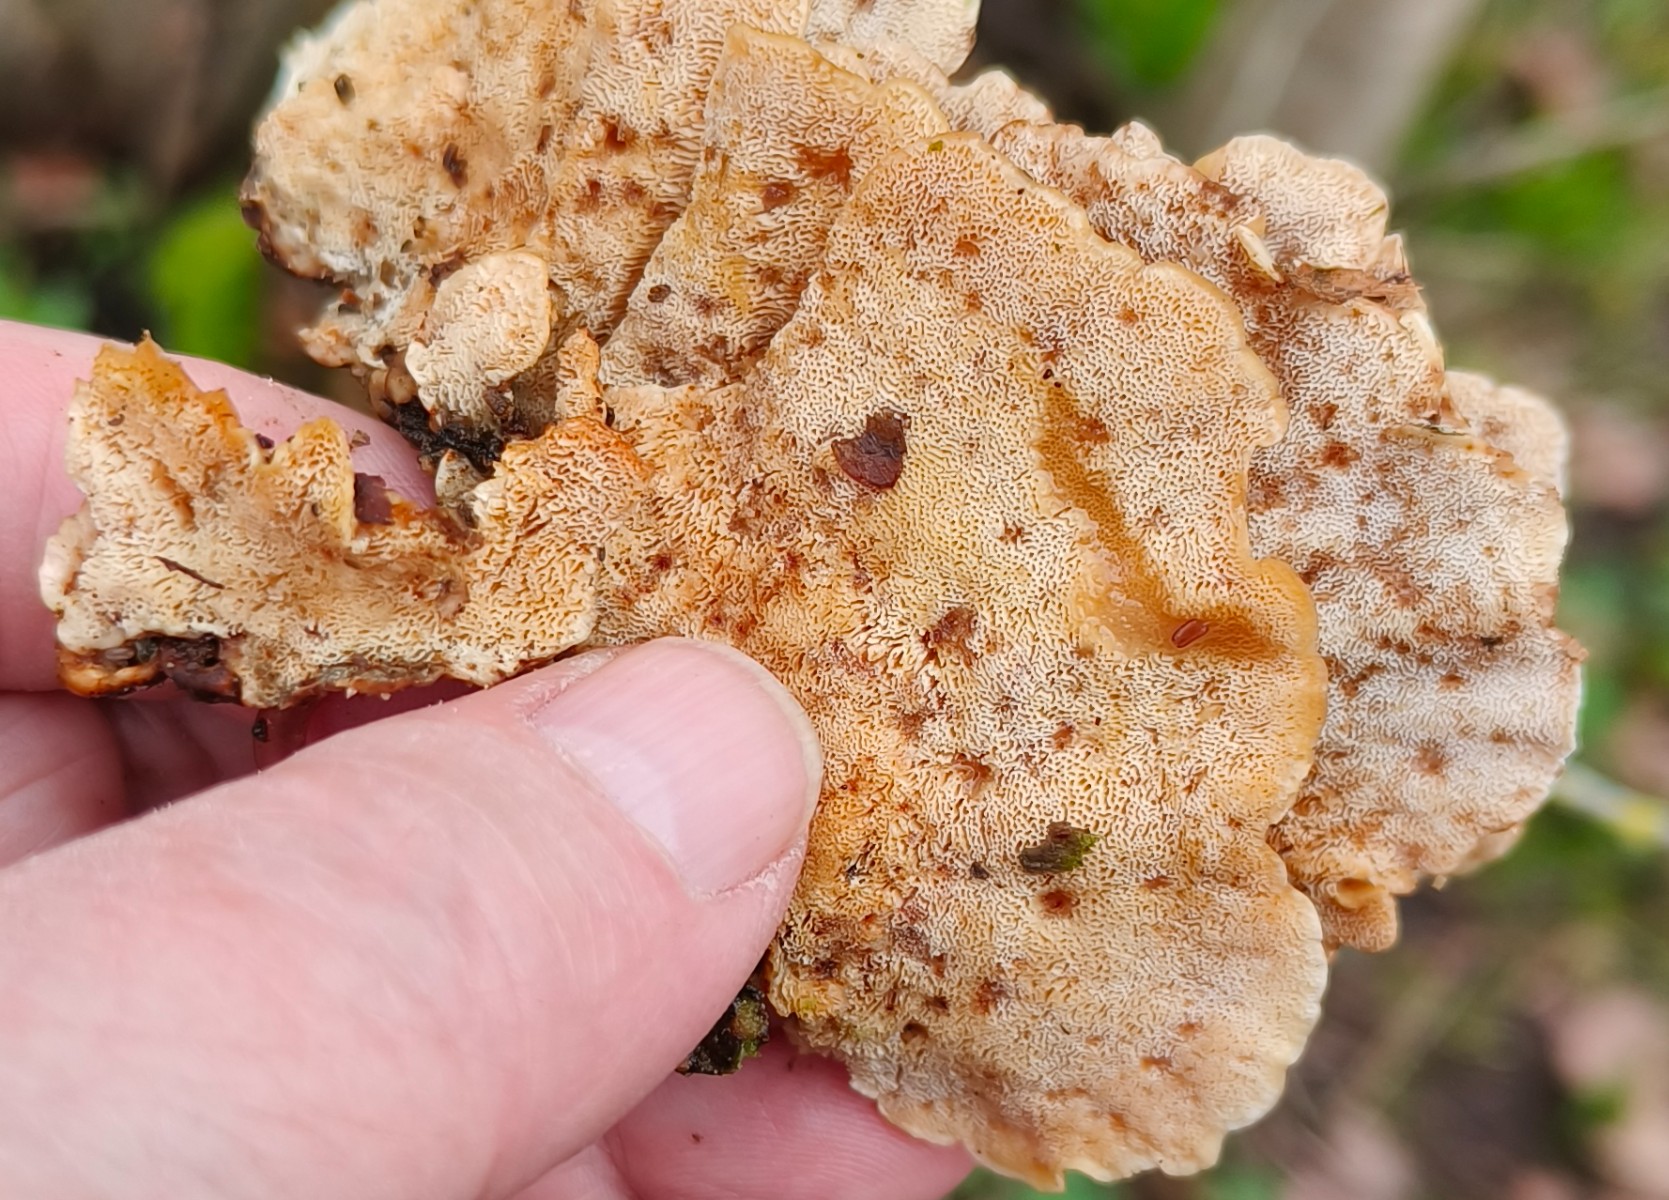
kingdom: Fungi
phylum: Basidiomycota
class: Agaricomycetes
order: Polyporales
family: Polyporaceae
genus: Trametes
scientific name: Trametes versicolor
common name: broget læderporesvamp
